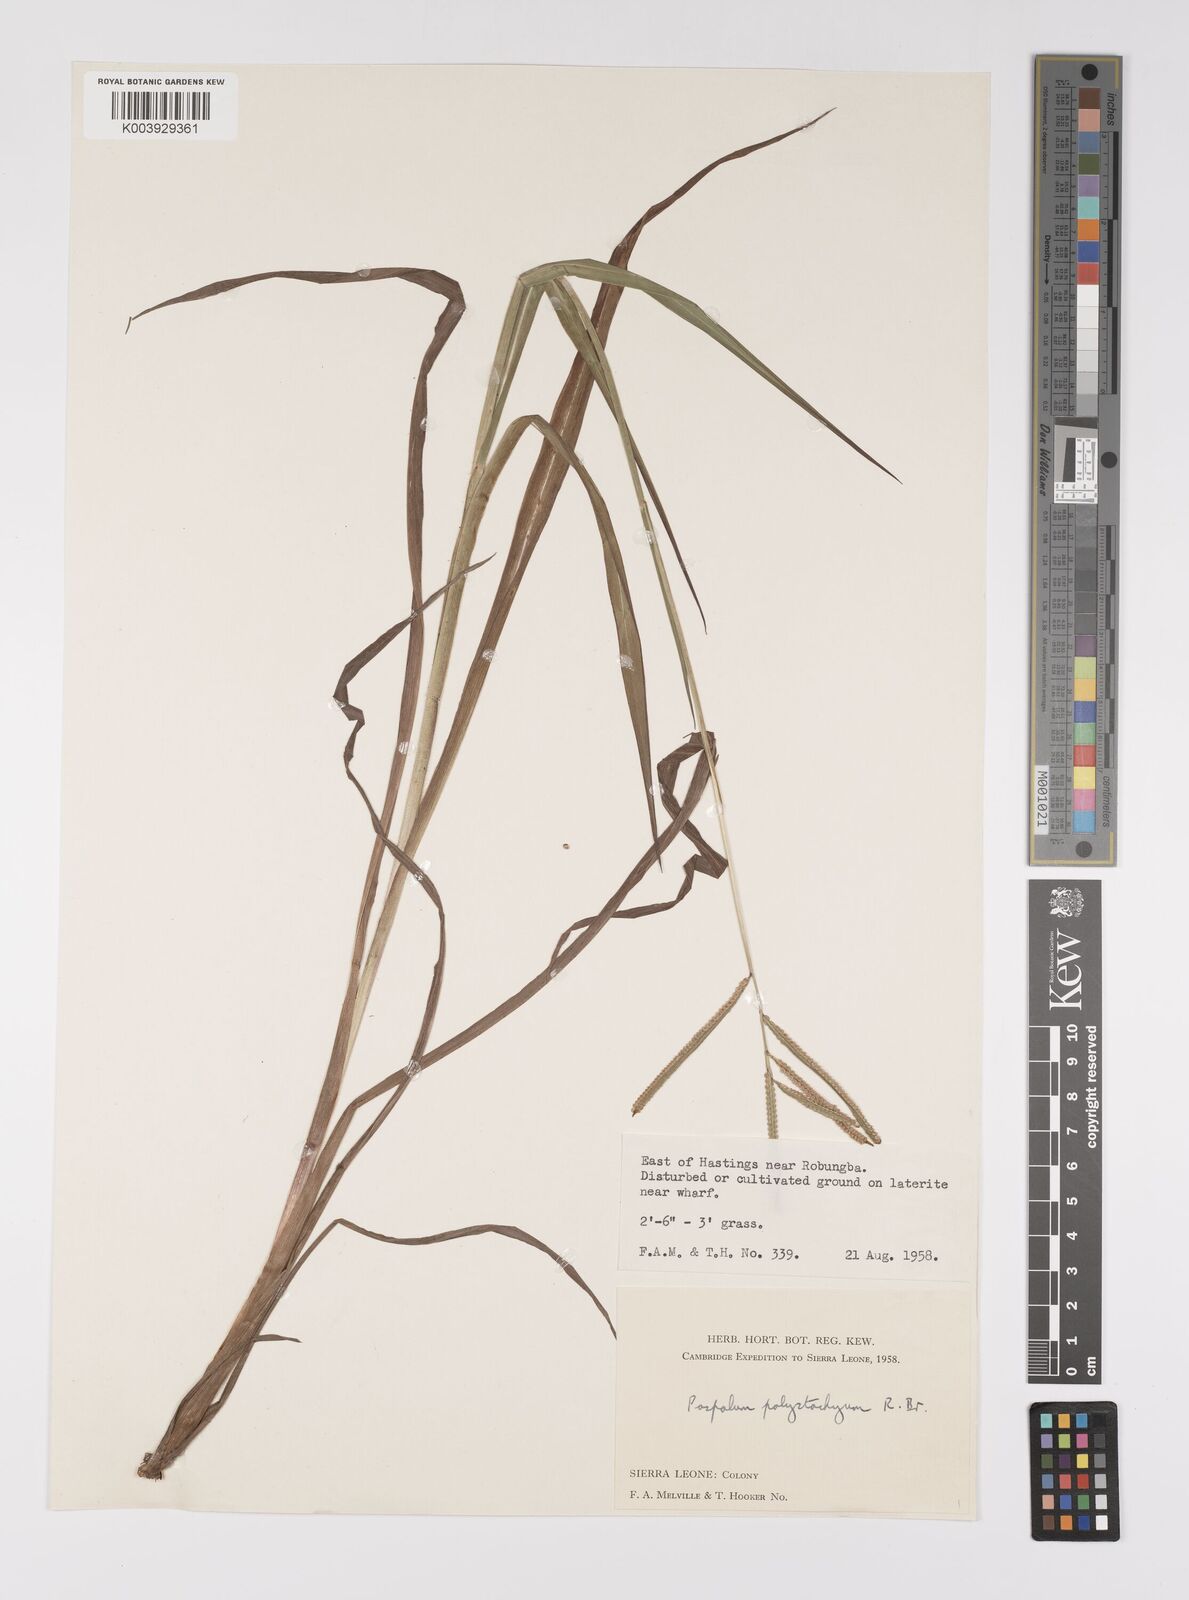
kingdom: Plantae
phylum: Tracheophyta
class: Liliopsida
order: Poales
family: Poaceae
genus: Paspalum
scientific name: Paspalum scrobiculatum
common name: Kodo millet
